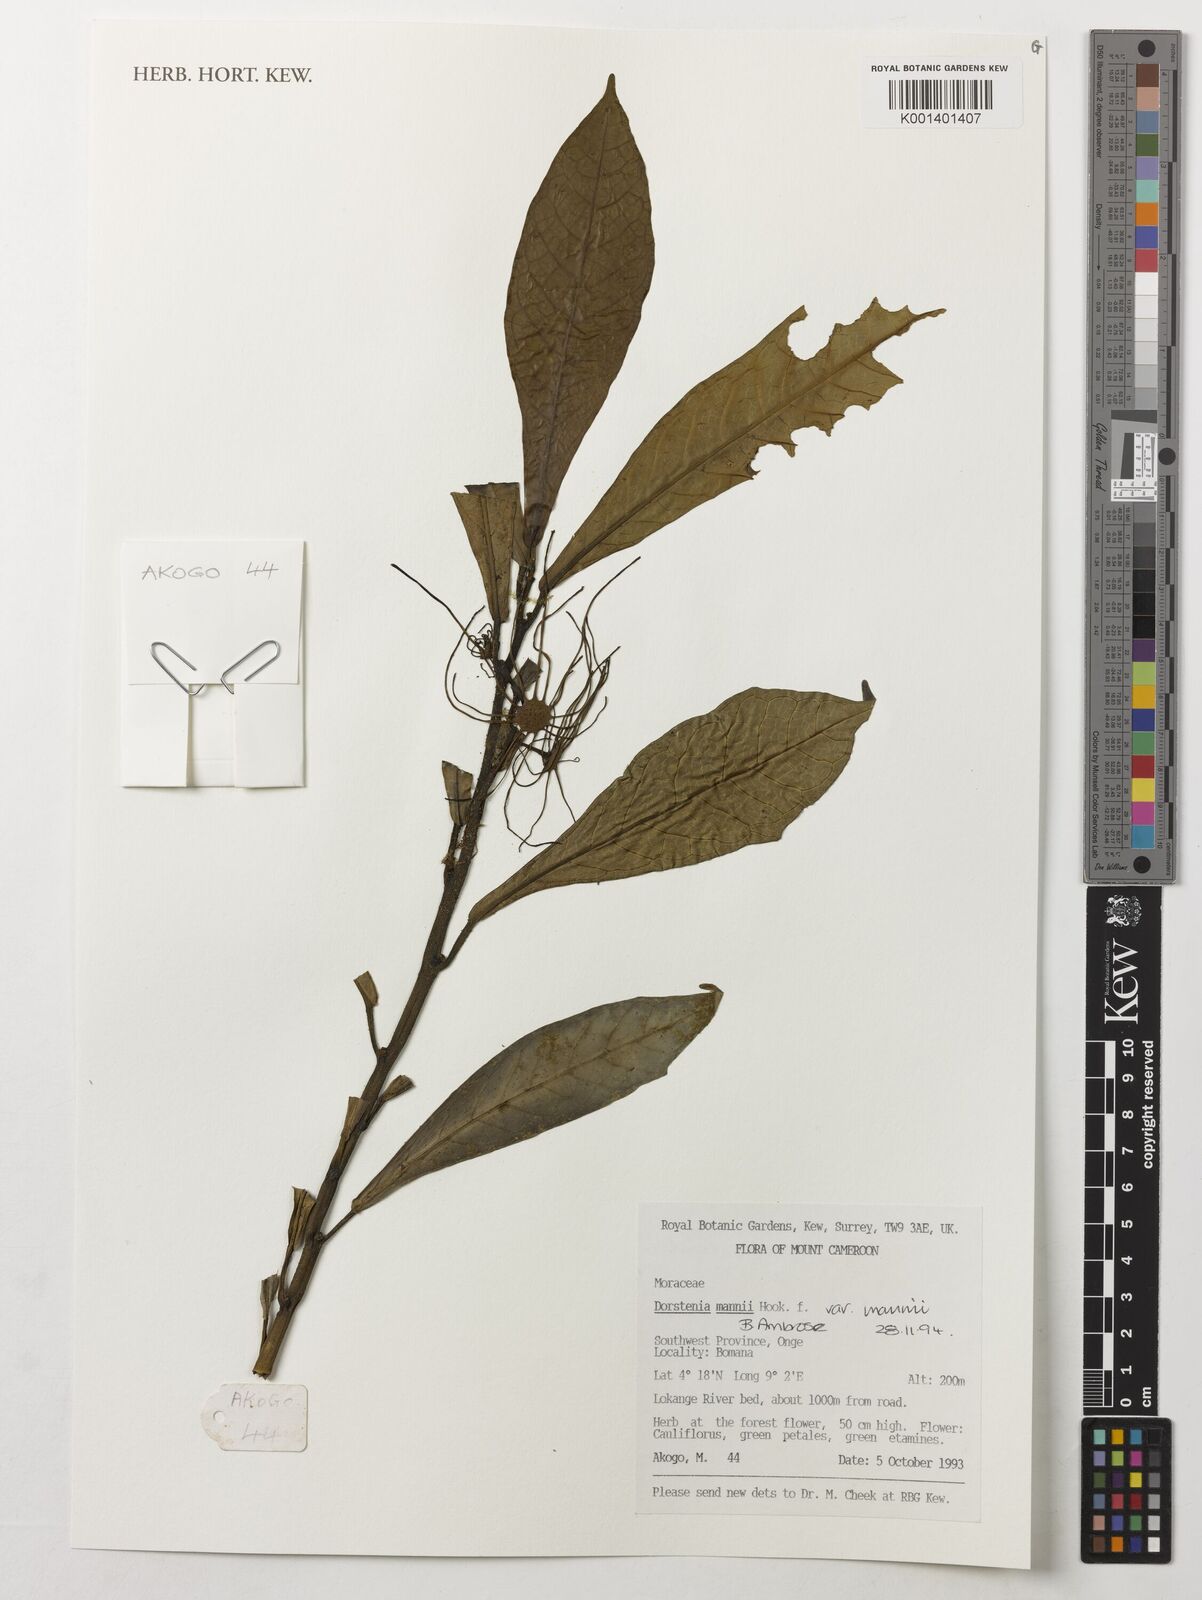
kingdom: Plantae
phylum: Tracheophyta
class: Magnoliopsida
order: Rosales
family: Moraceae
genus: Dorstenia
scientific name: Dorstenia mannii
